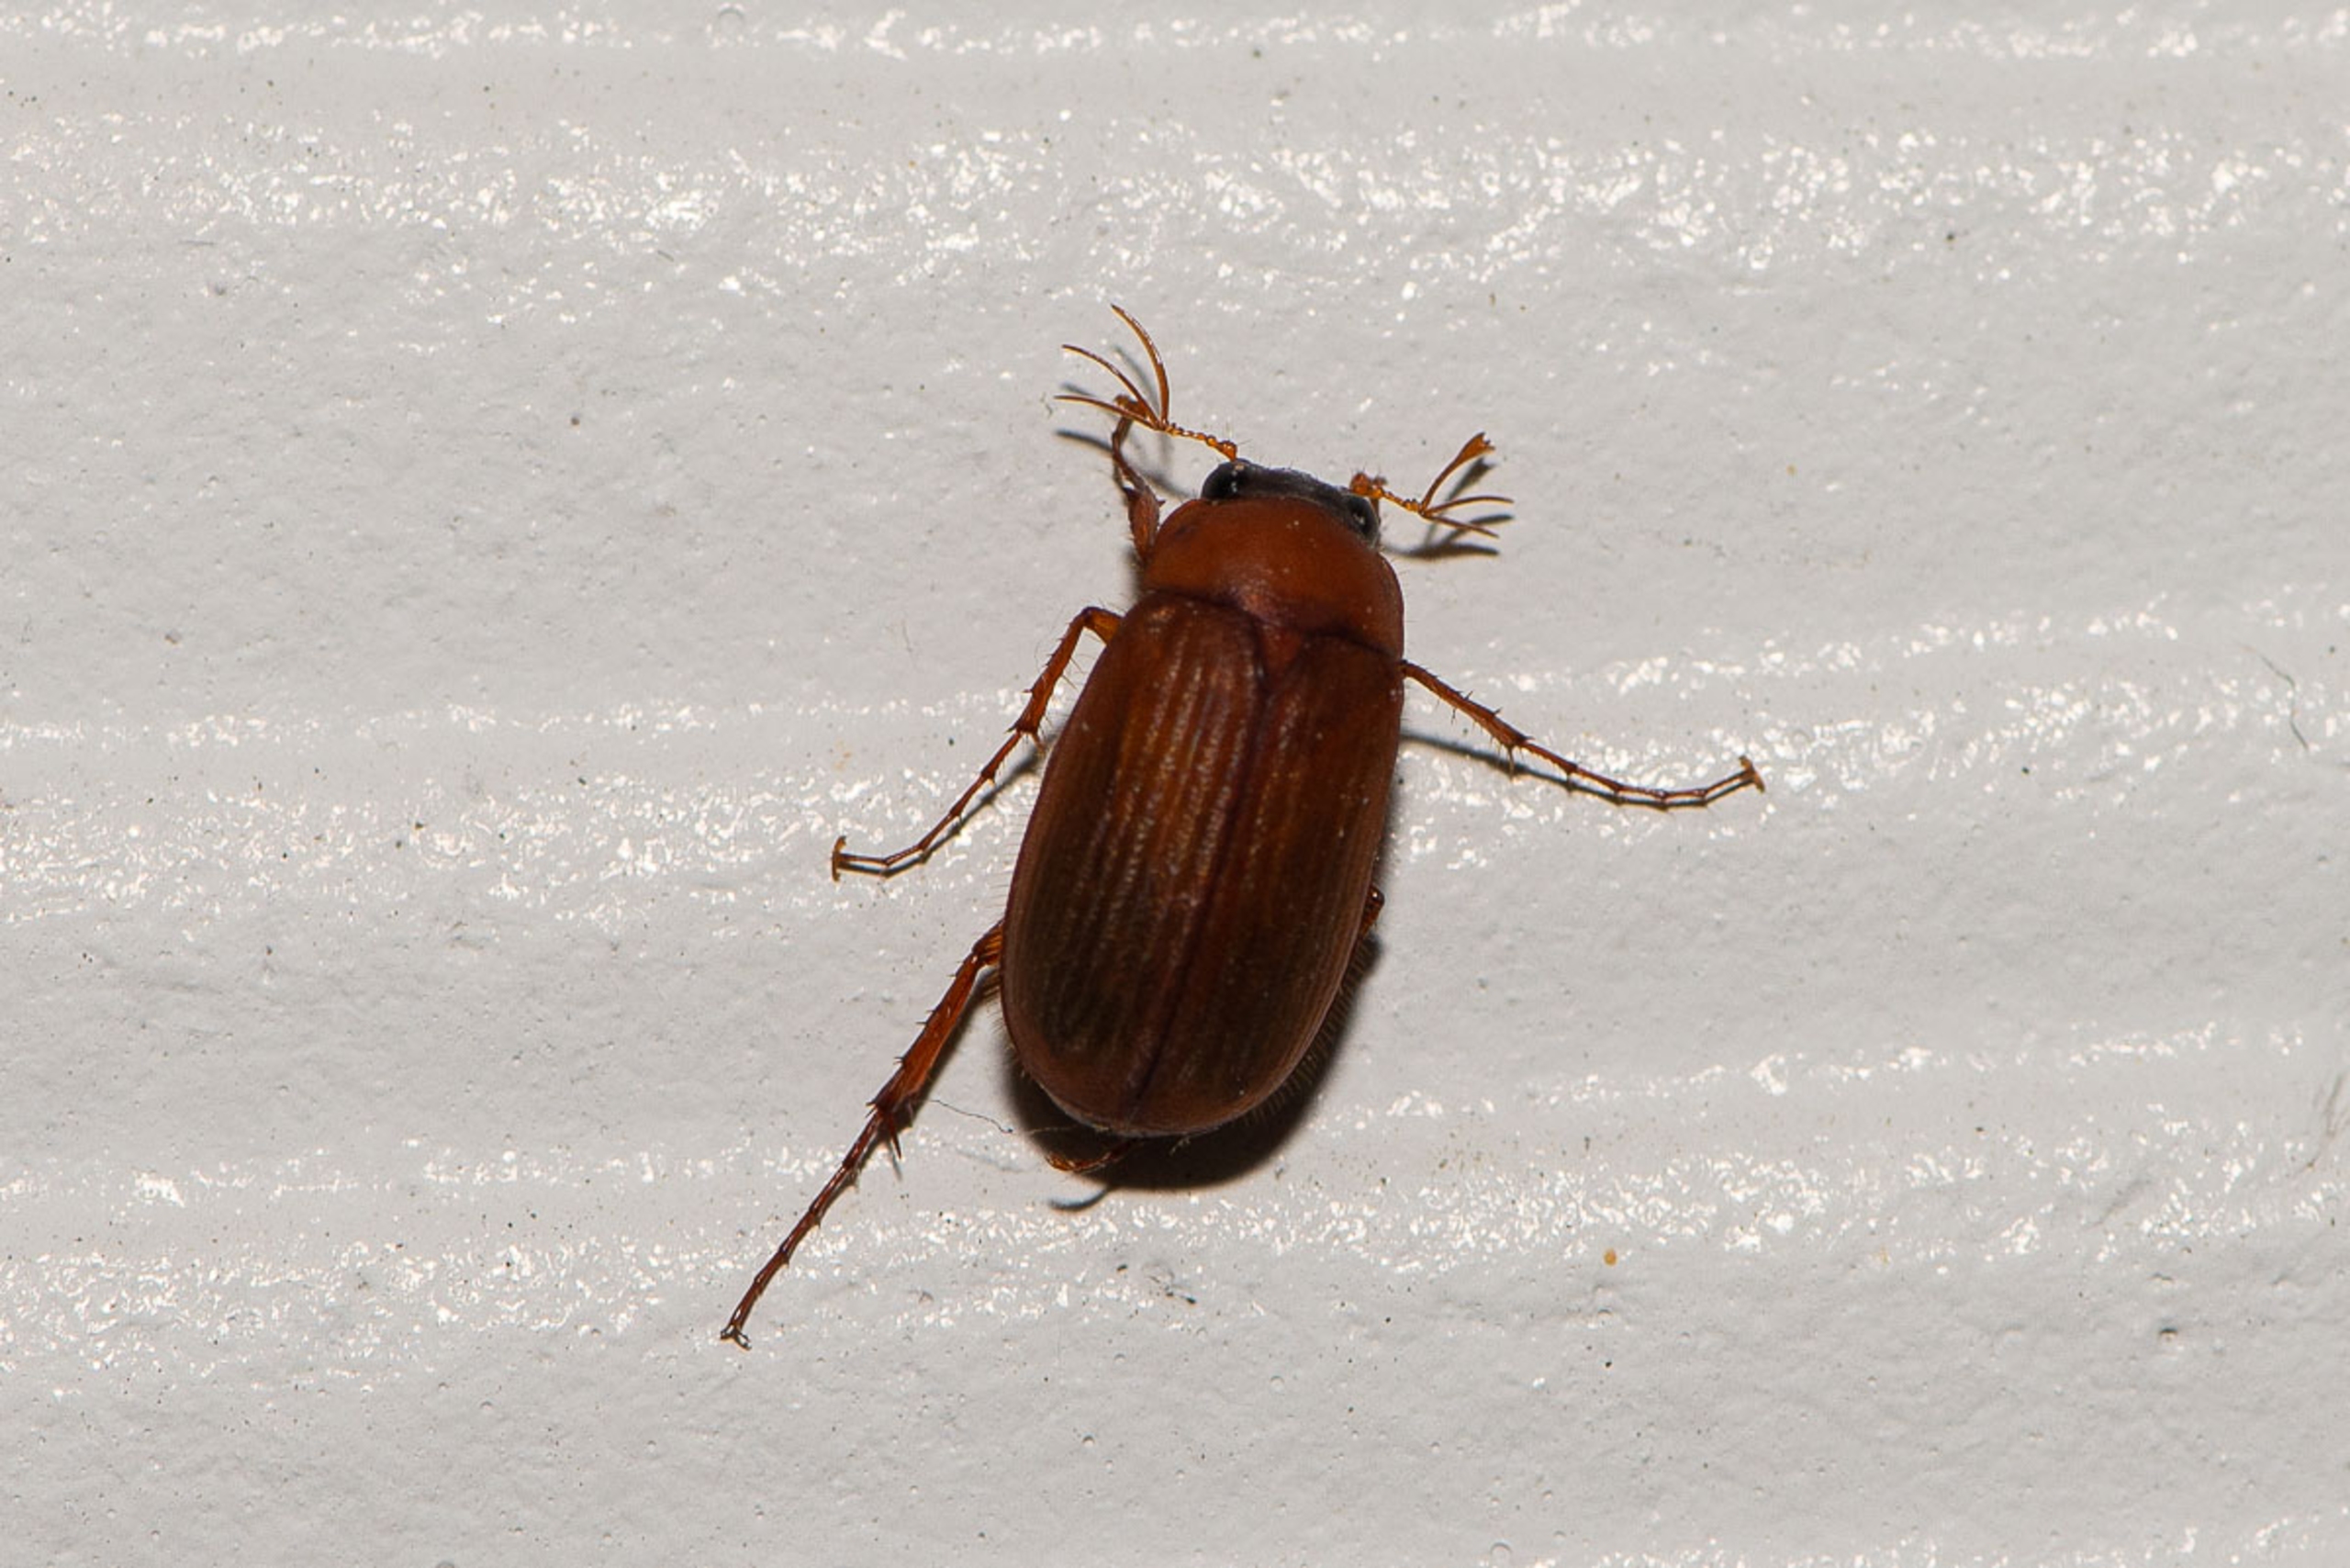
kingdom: Animalia
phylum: Arthropoda
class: Insecta
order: Coleoptera
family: Scarabaeidae
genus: Serica
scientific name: Serica brunnea
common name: Natoldenborre
